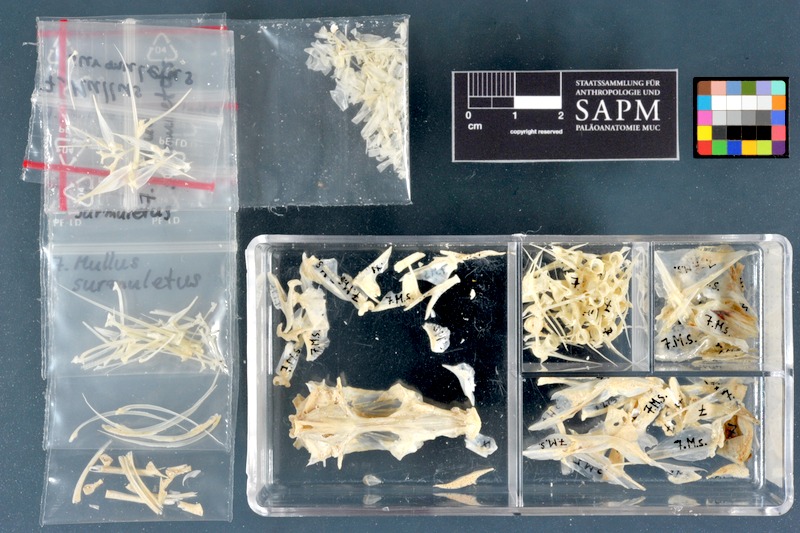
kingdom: Animalia
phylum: Chordata
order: Perciformes
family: Mullidae
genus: Mullus
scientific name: Mullus surmuletus
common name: Red mullet
